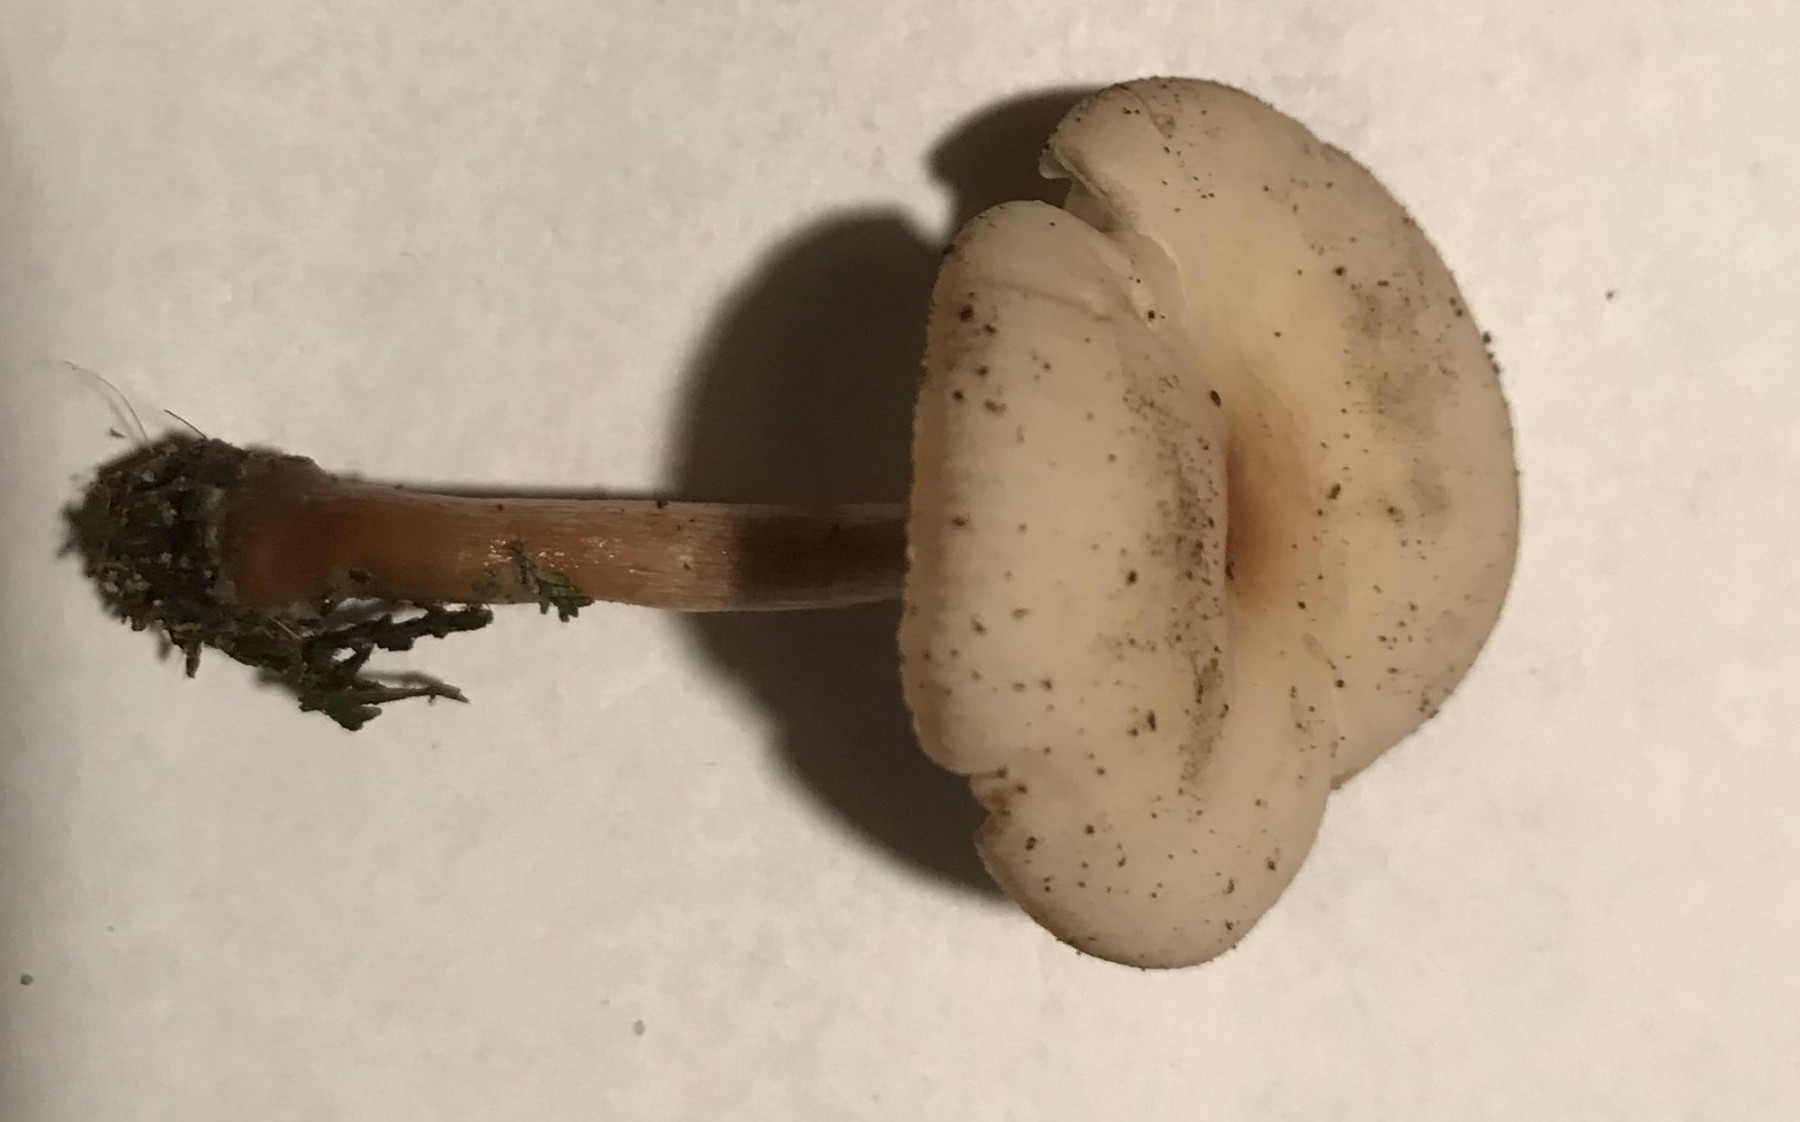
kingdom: Fungi
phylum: Basidiomycota
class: Agaricomycetes
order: Agaricales
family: Tricholomataceae
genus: Clitocybe
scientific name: Clitocybe fragrans
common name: vellugtende tragthat
